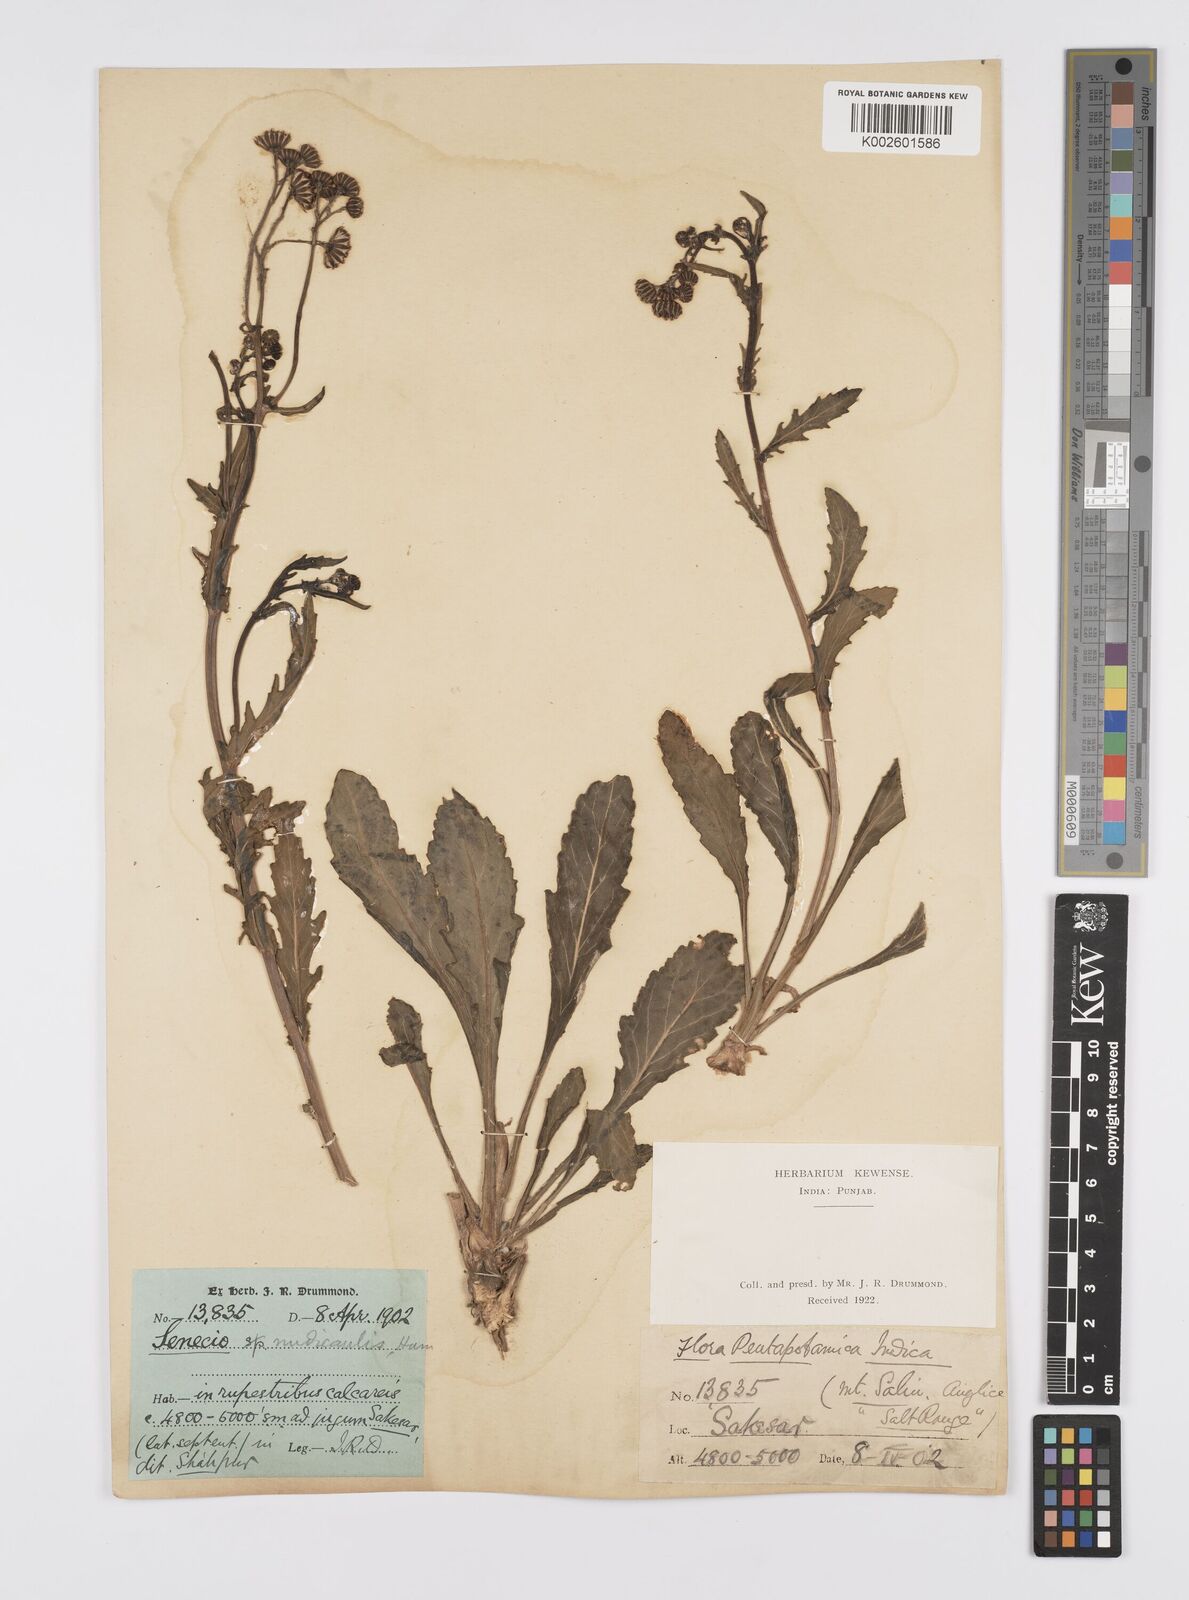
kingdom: Plantae
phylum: Tracheophyta
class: Magnoliopsida
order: Asterales
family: Asteraceae
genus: Jacobaea
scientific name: Jacobaea nudicaulis
